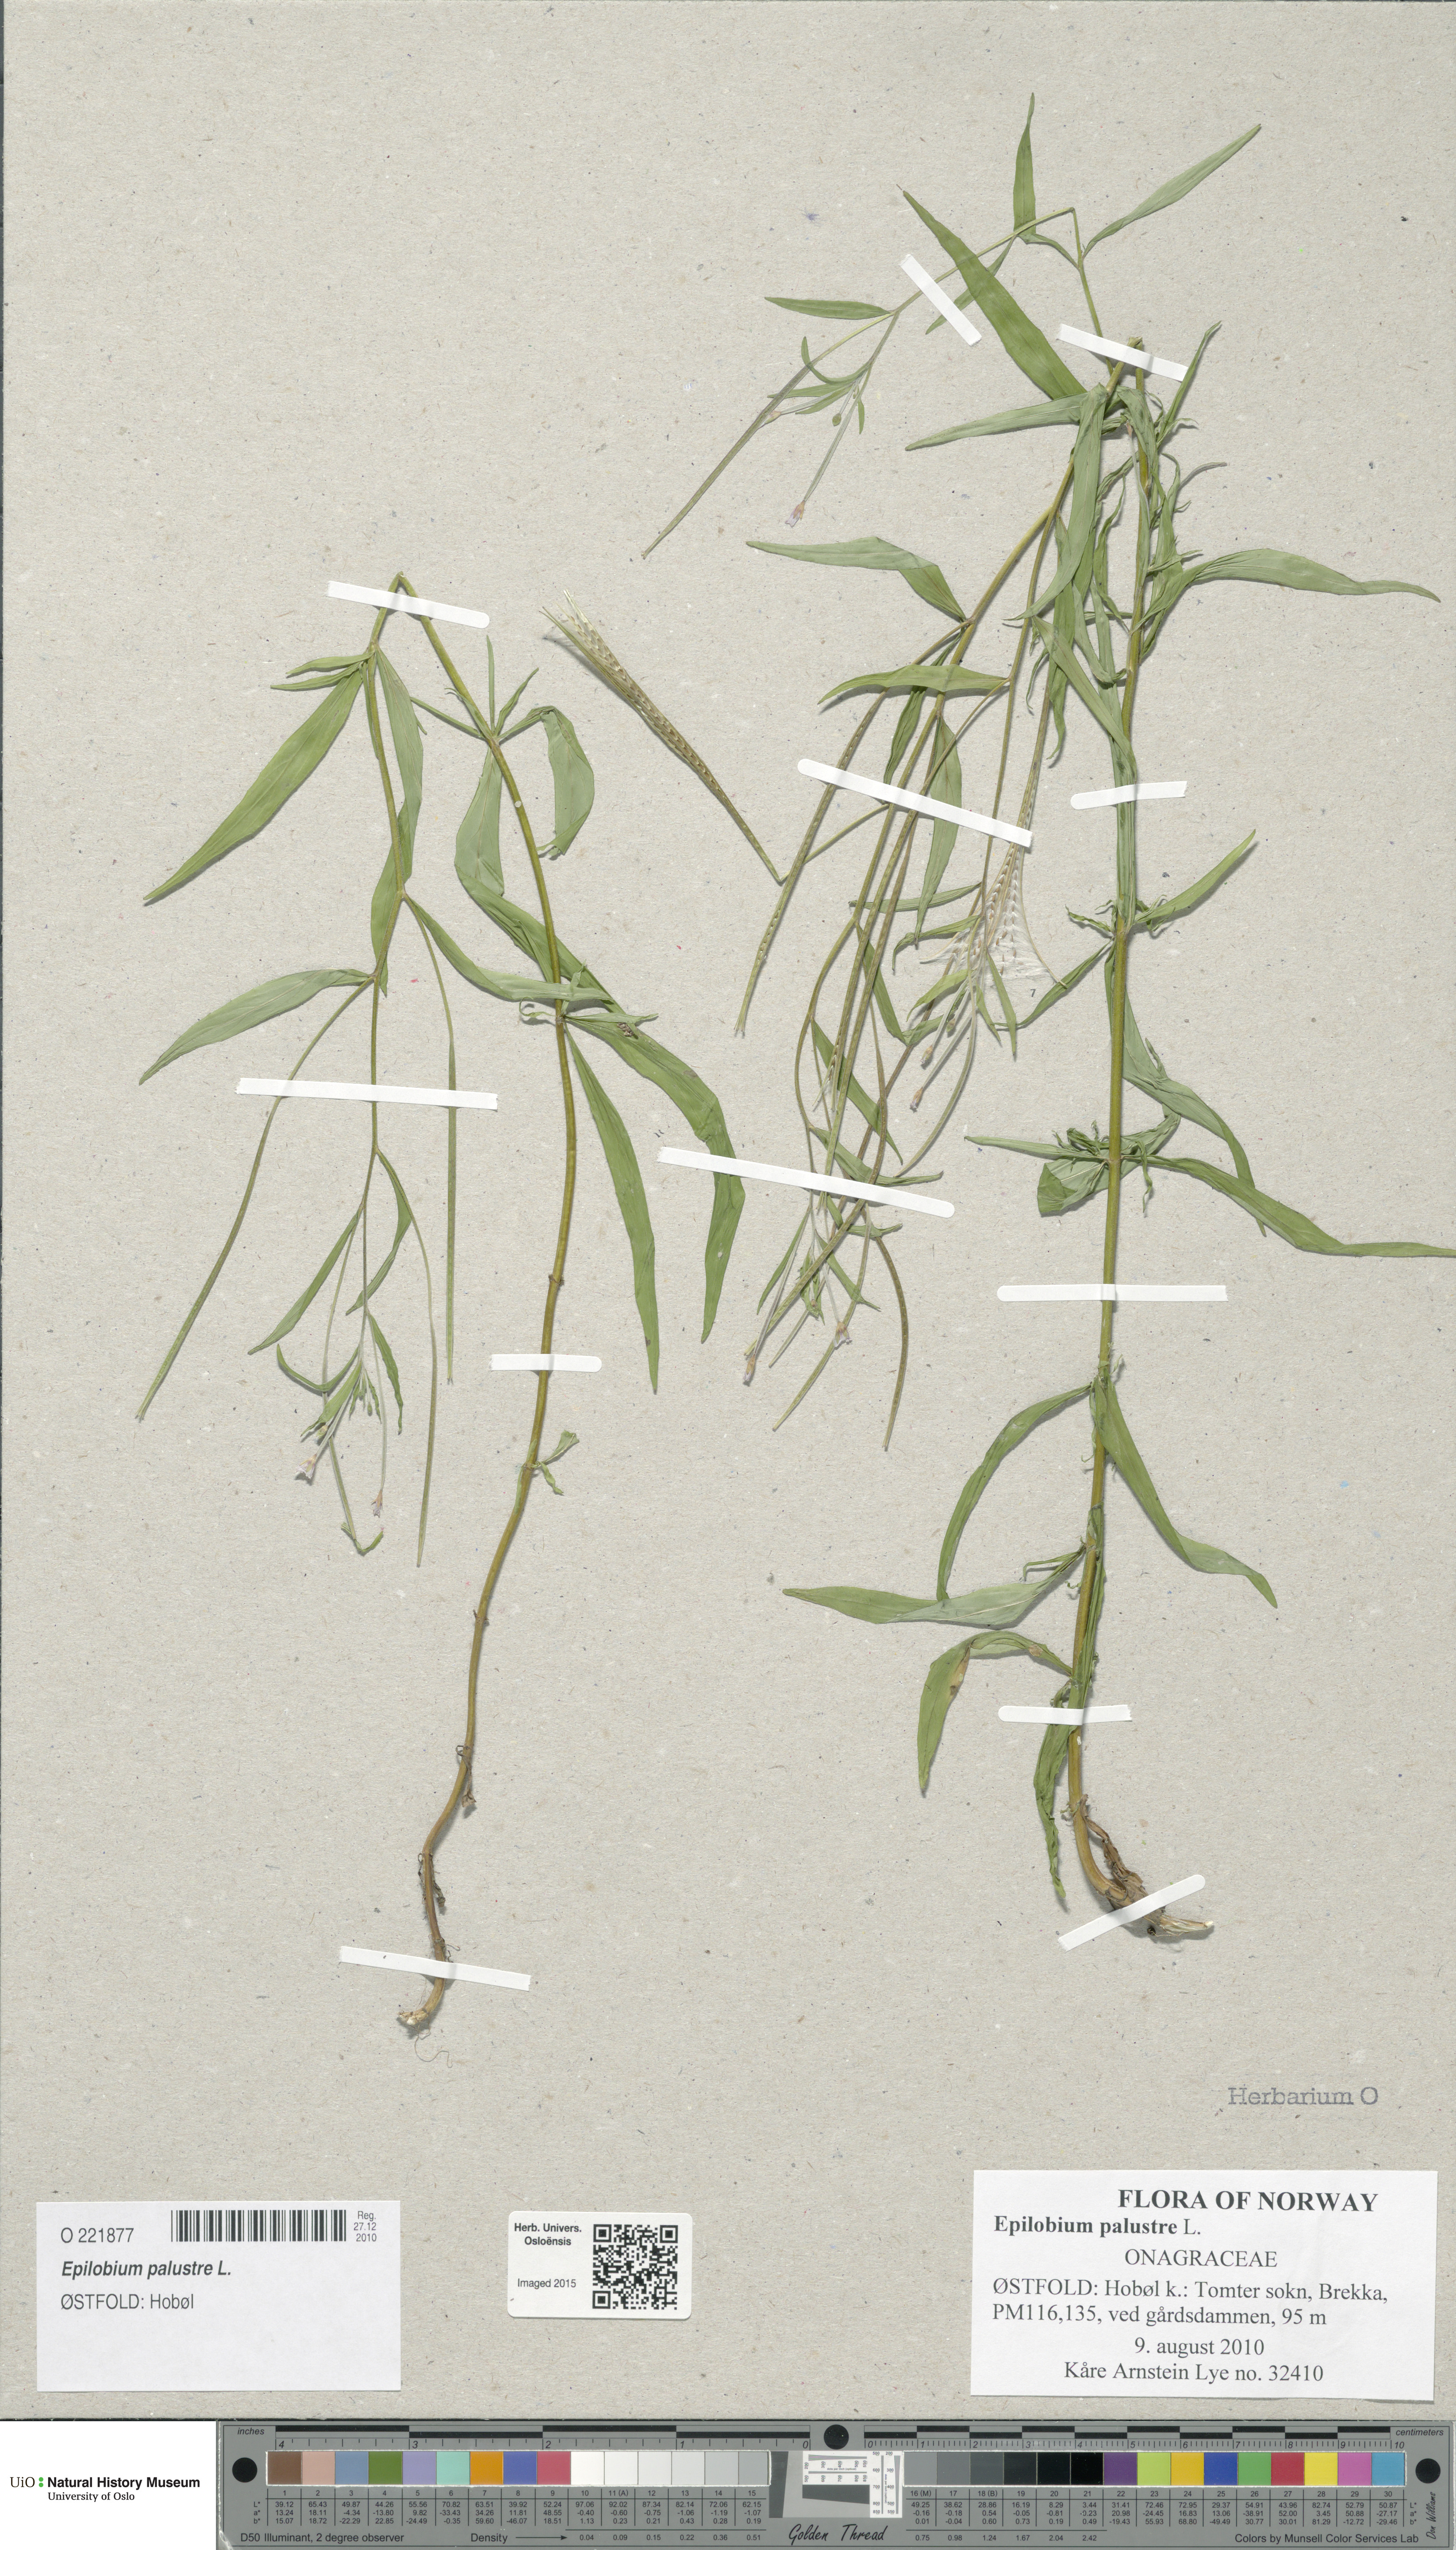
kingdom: Plantae
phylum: Tracheophyta
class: Magnoliopsida
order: Myrtales
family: Onagraceae
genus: Epilobium
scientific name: Epilobium palustre
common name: Marsh willowherb
